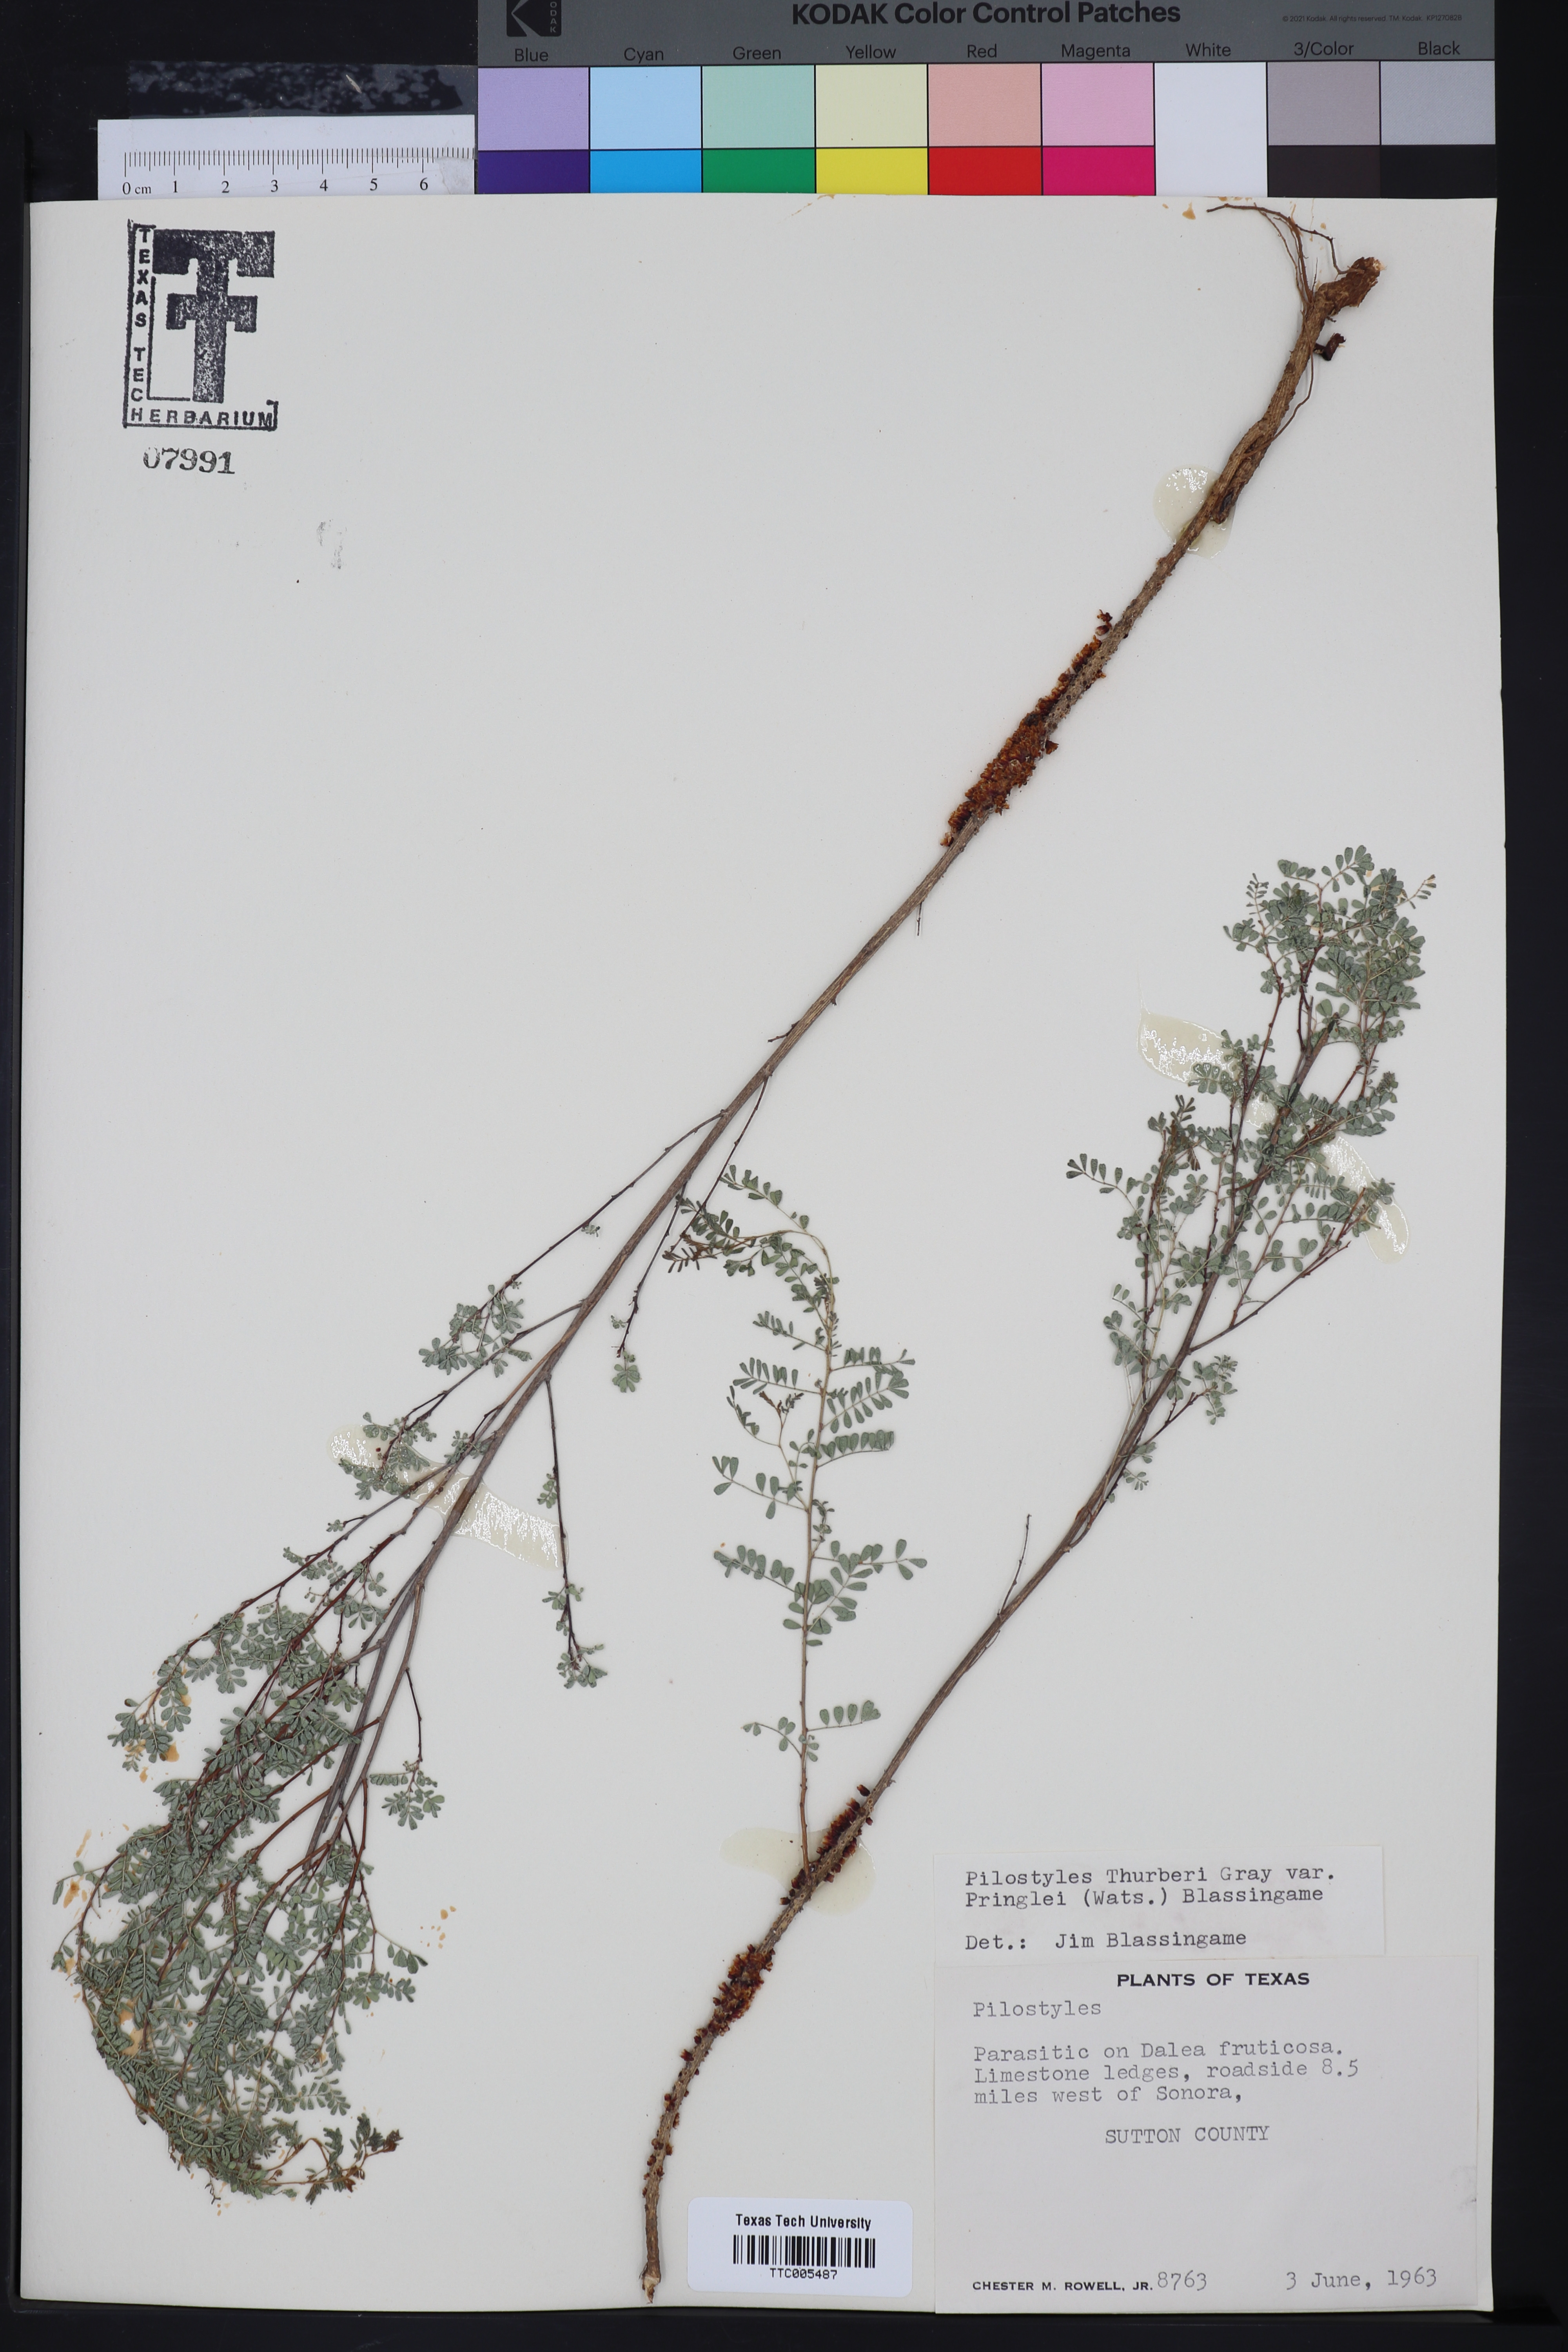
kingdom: Plantae
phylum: Tracheophyta
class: Magnoliopsida
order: Cucurbitales
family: Apodanthaceae
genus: Pilostyles
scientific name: Pilostyles
